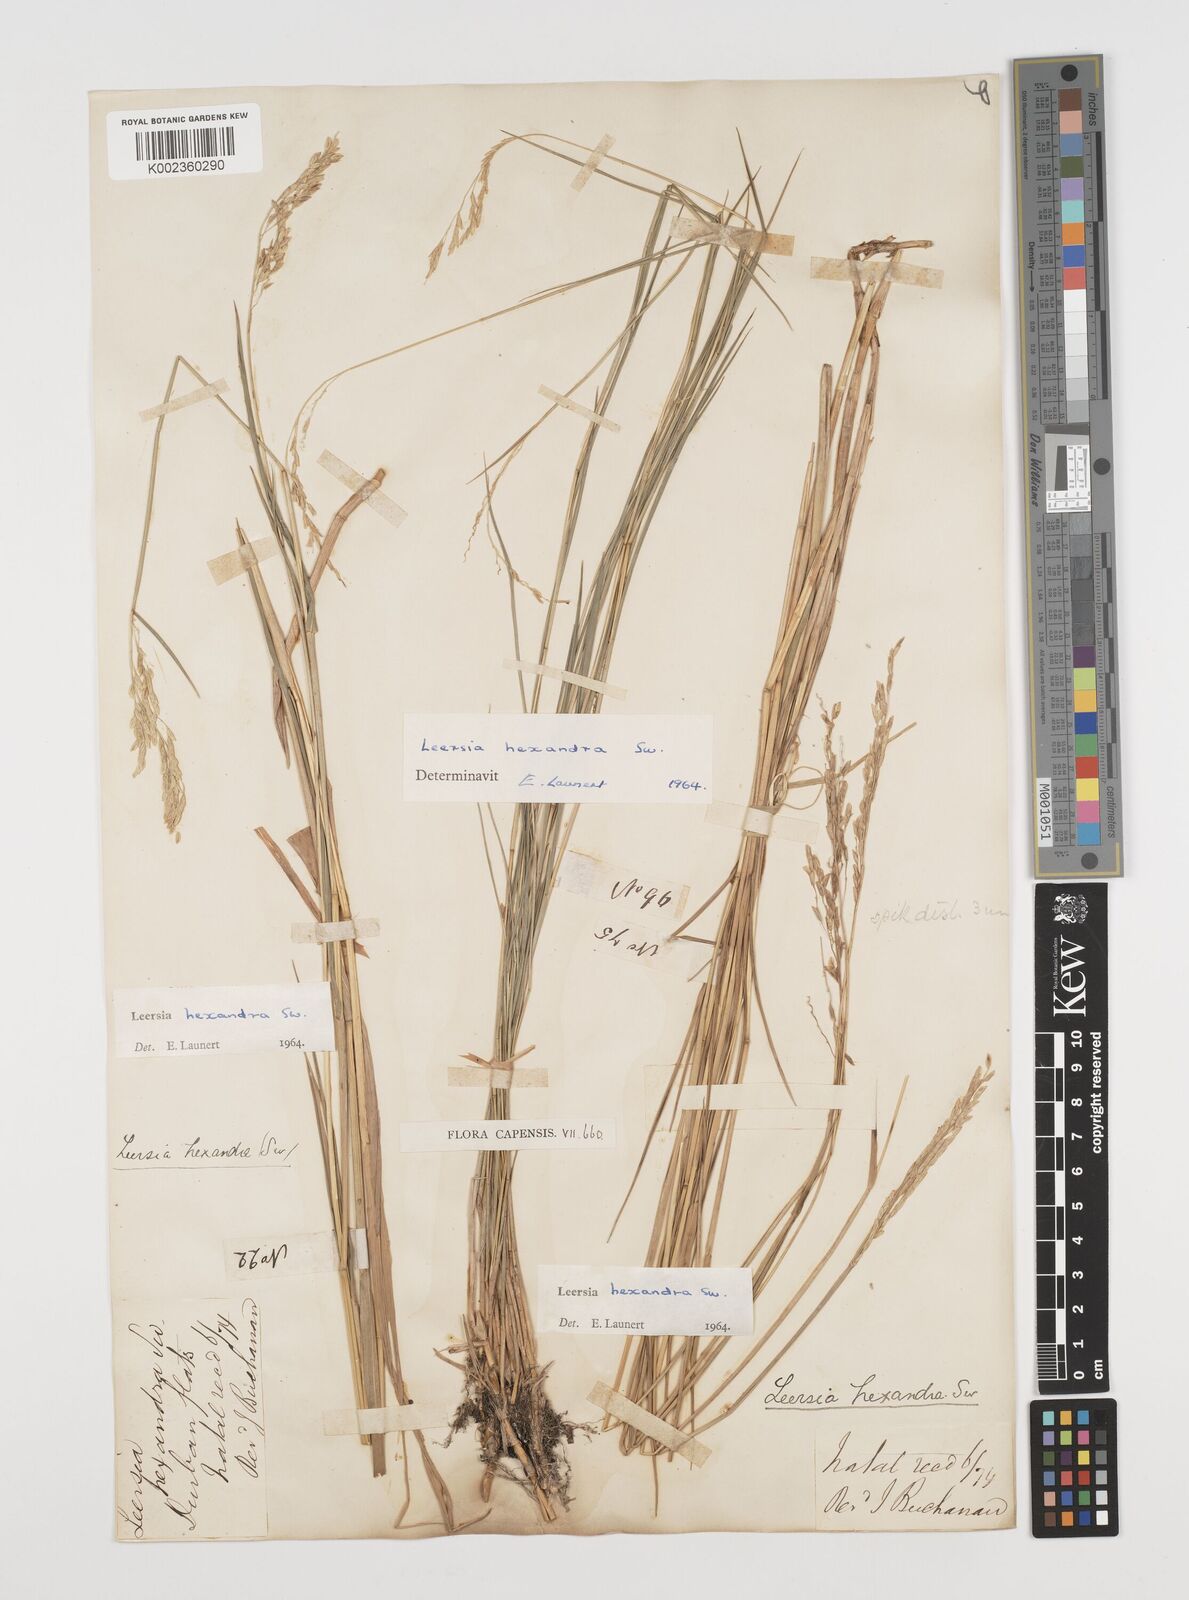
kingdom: Plantae
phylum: Tracheophyta
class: Liliopsida
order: Poales
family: Poaceae
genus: Leersia
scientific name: Leersia hexandra
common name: Southern cut grass
